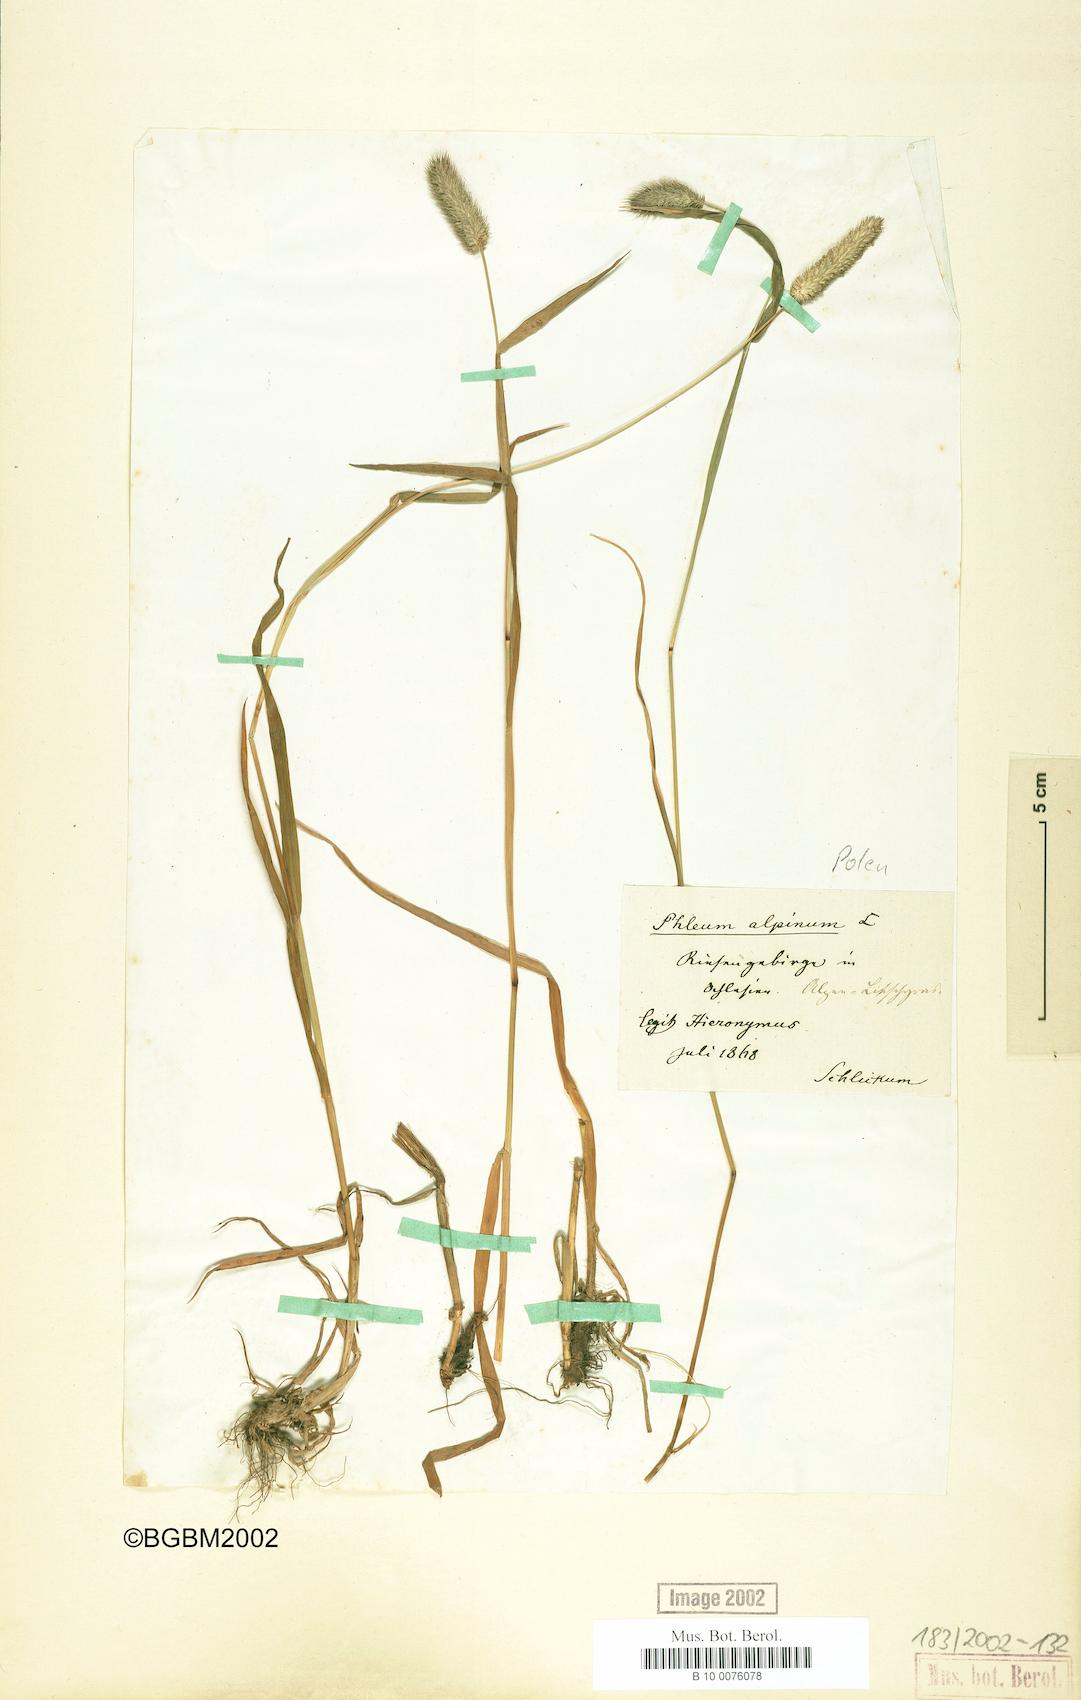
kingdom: Plantae
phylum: Tracheophyta
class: Liliopsida
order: Poales
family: Poaceae
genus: Phleum
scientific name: Phleum alpinum
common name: Alpine cat's-tail
